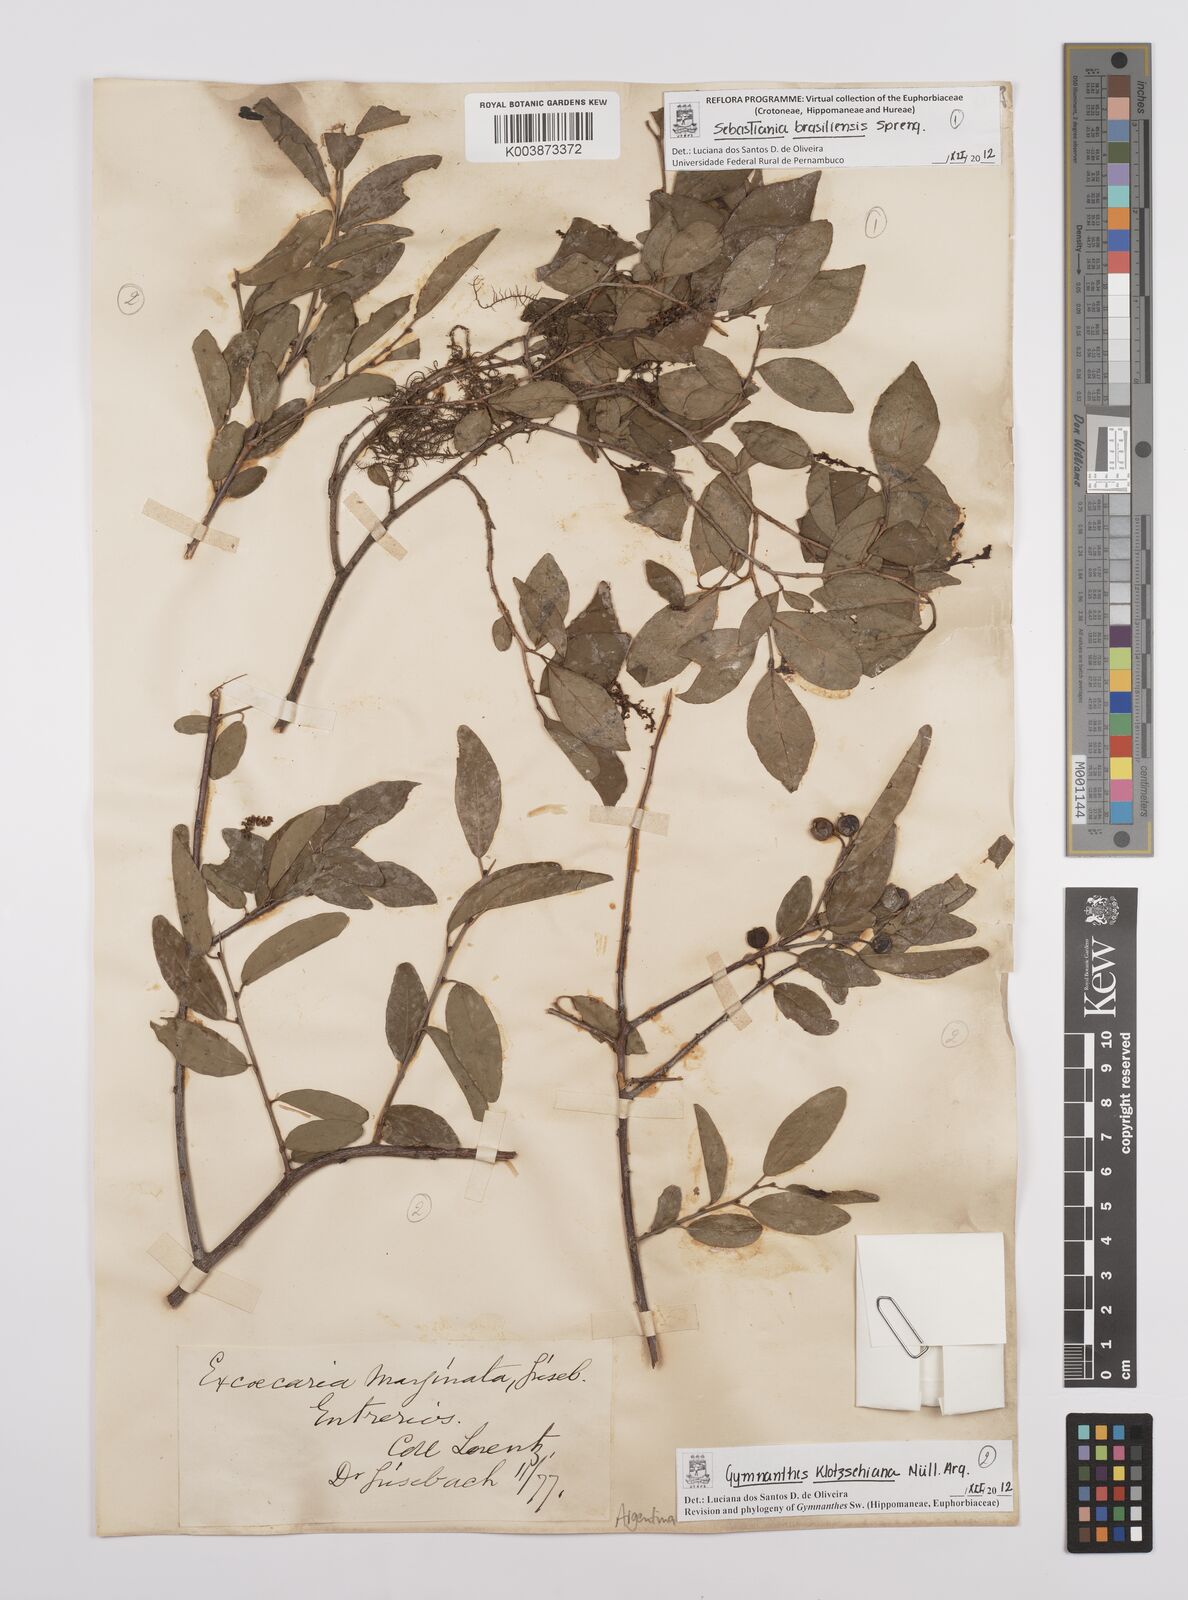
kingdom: Plantae
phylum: Tracheophyta
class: Magnoliopsida
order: Malpighiales
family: Euphorbiaceae
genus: Sebastiania
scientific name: Sebastiania klotzschiana
